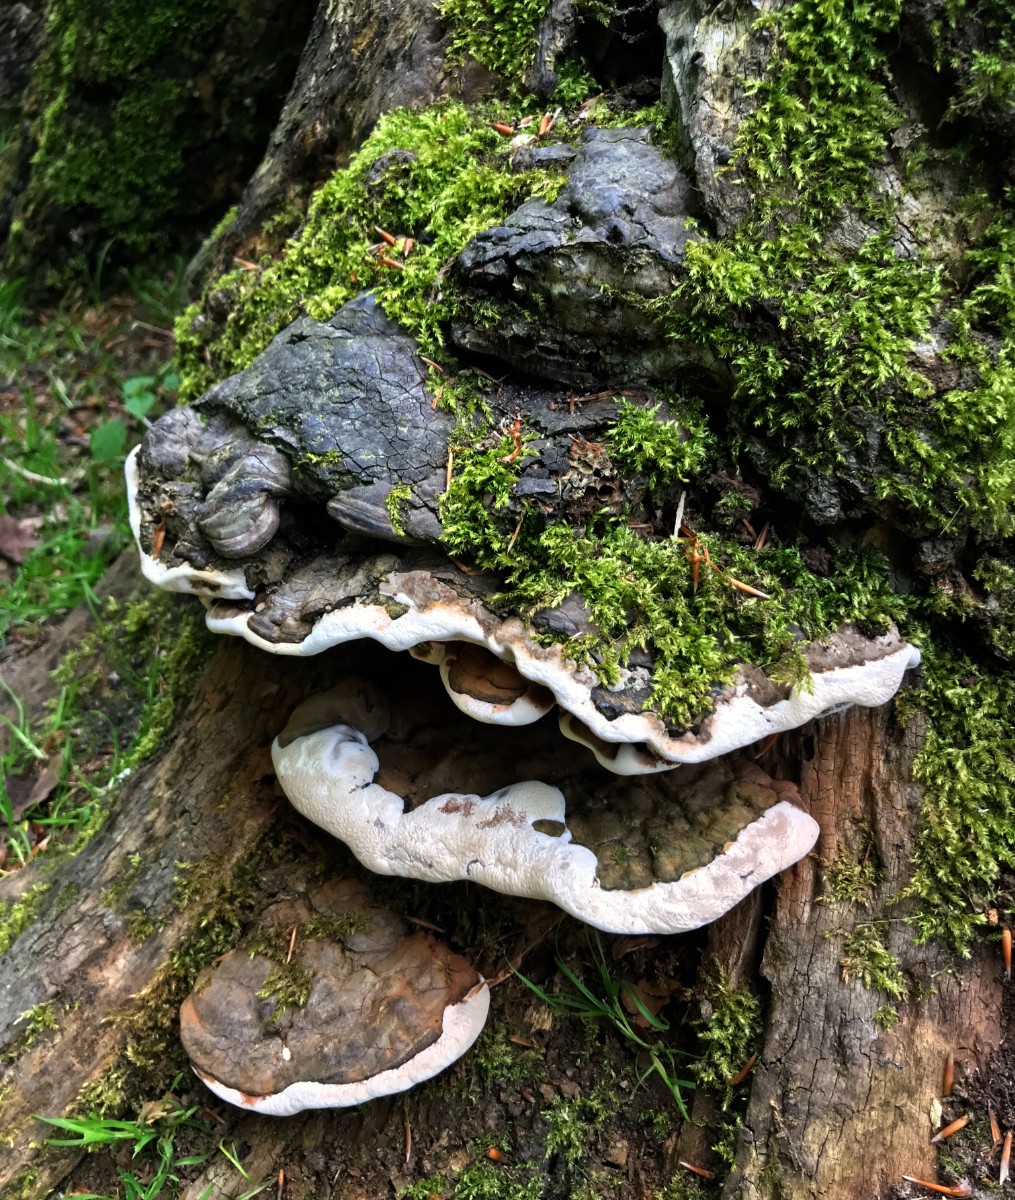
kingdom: Fungi
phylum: Basidiomycota
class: Agaricomycetes
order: Polyporales
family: Polyporaceae
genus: Ganoderma
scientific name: Ganoderma applanatum
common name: flad lakporesvamp
